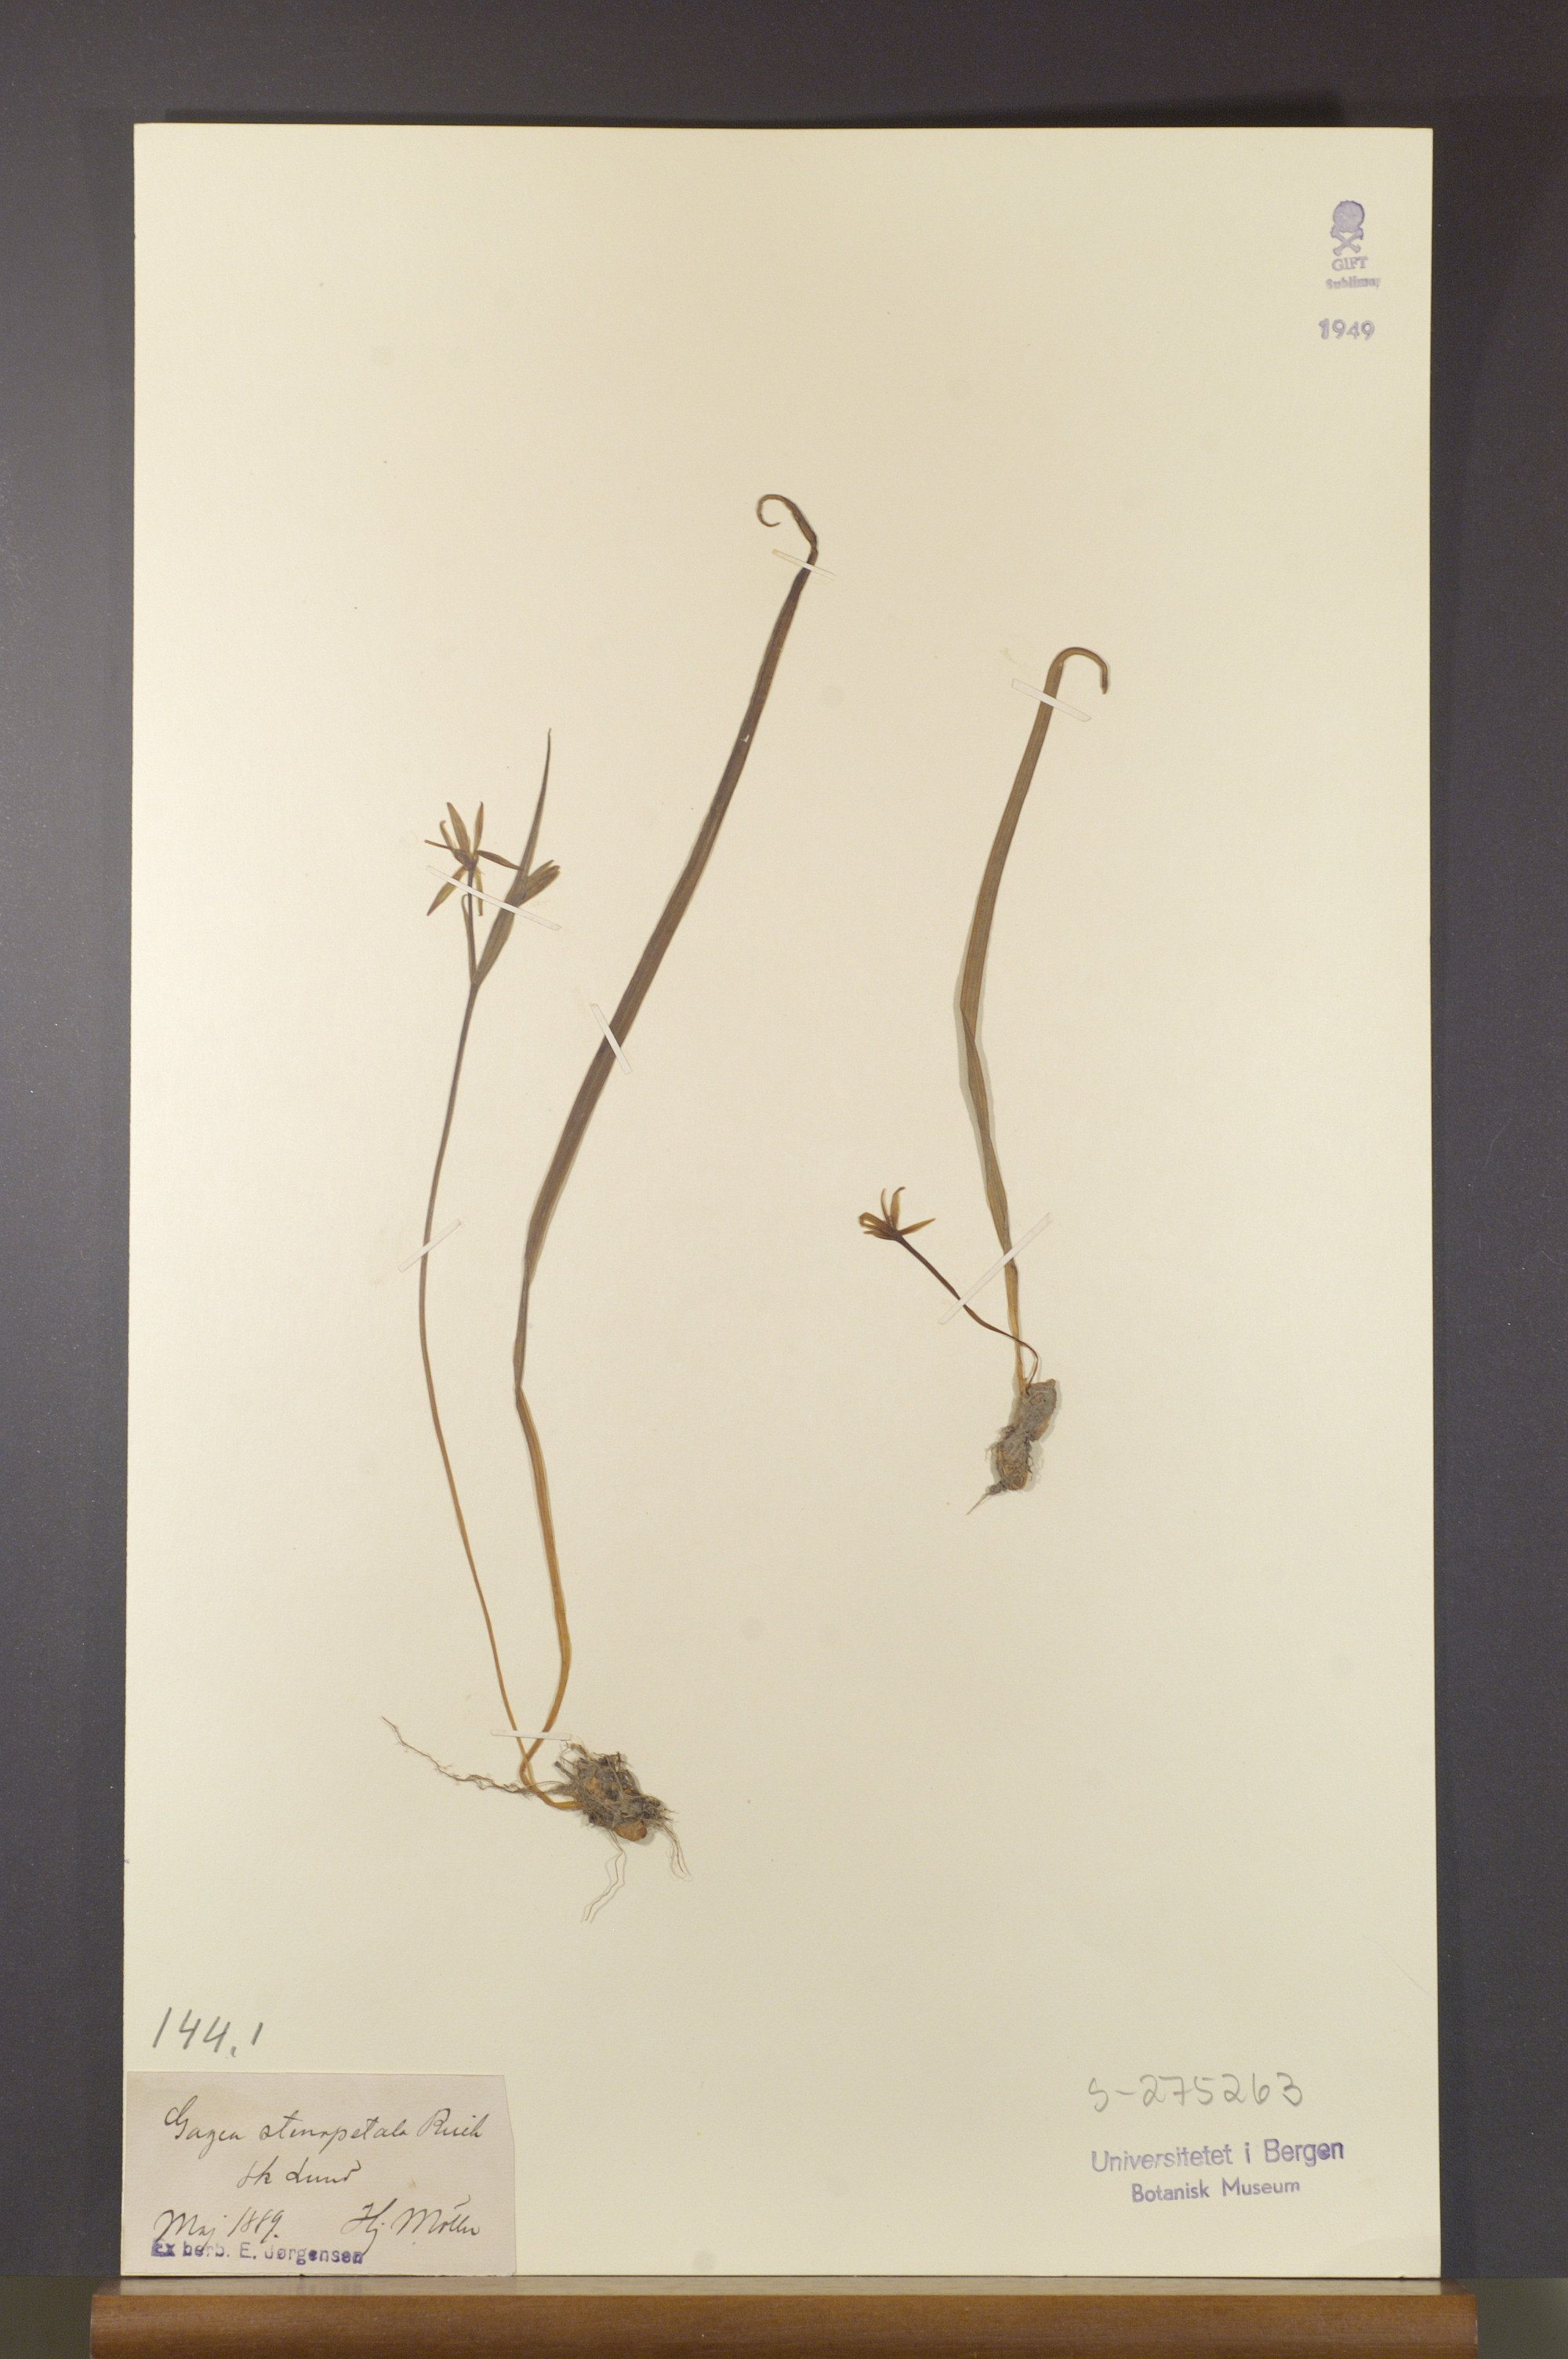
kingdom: Plantae
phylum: Tracheophyta
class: Liliopsida
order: Liliales
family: Liliaceae
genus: Gagea
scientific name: Gagea pratensis
